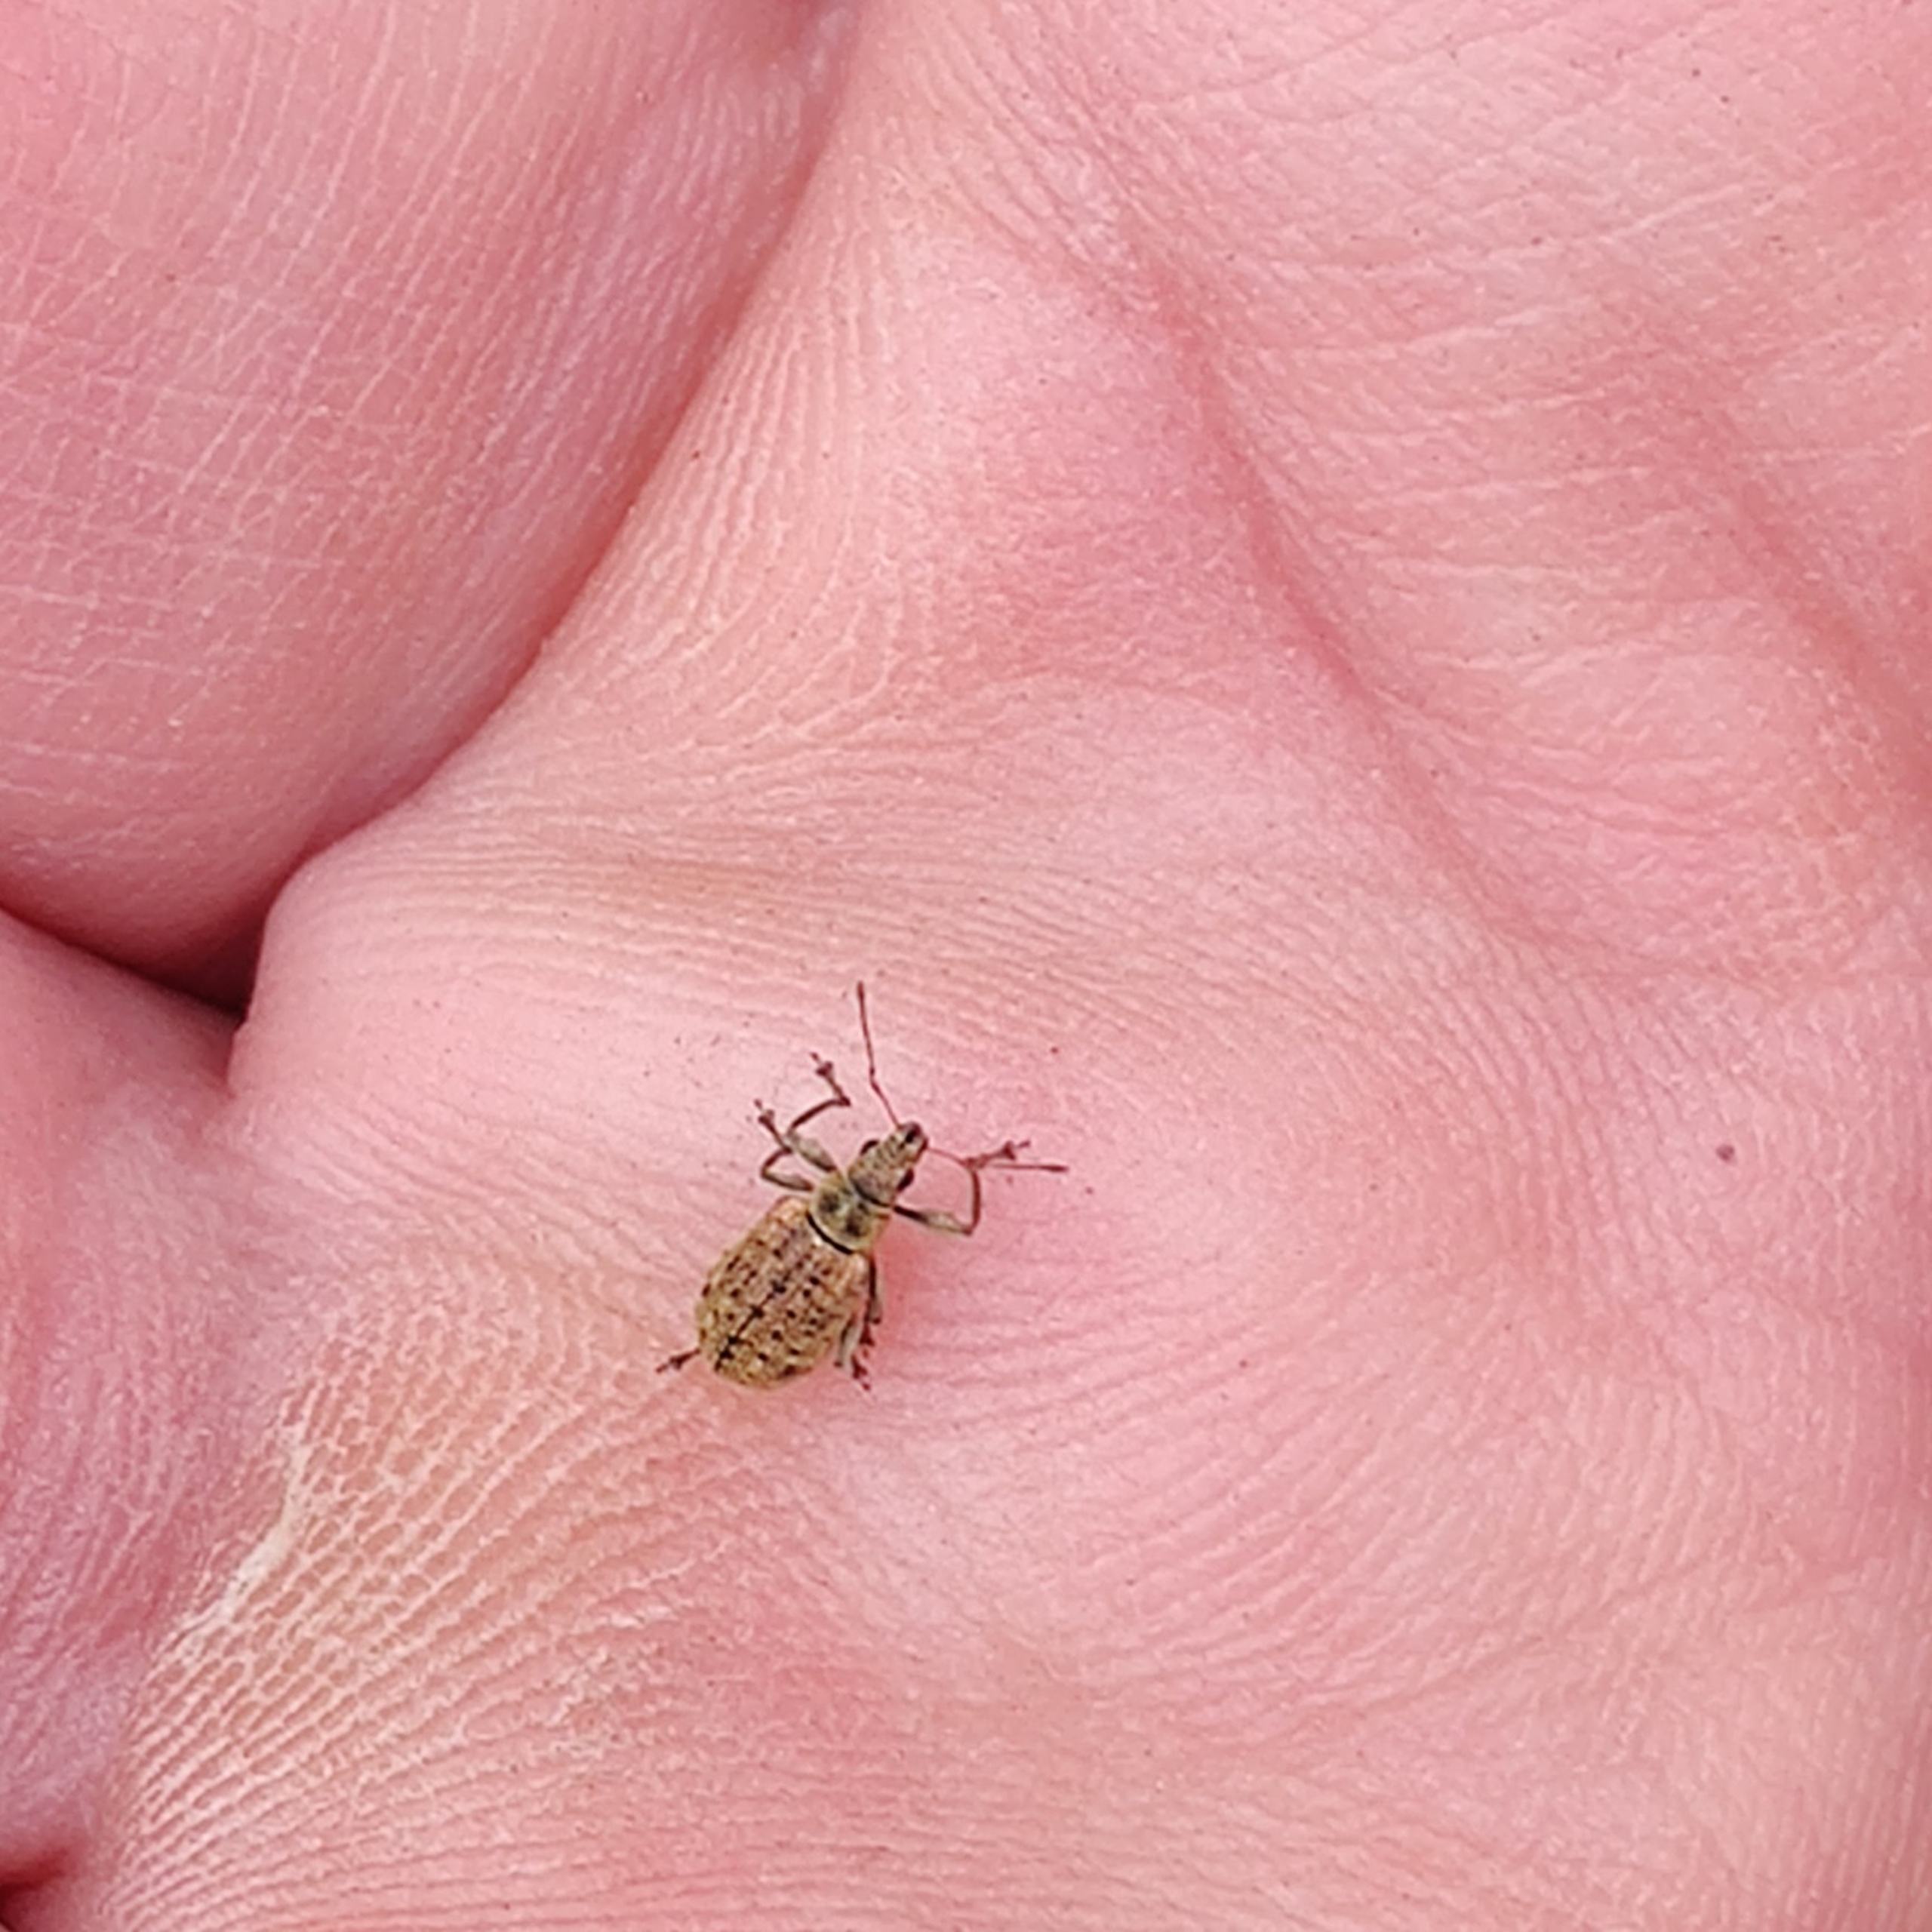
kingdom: Animalia
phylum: Arthropoda
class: Insecta
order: Coleoptera
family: Curculionidae
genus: Polydrusus
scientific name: Polydrusus cervinus
